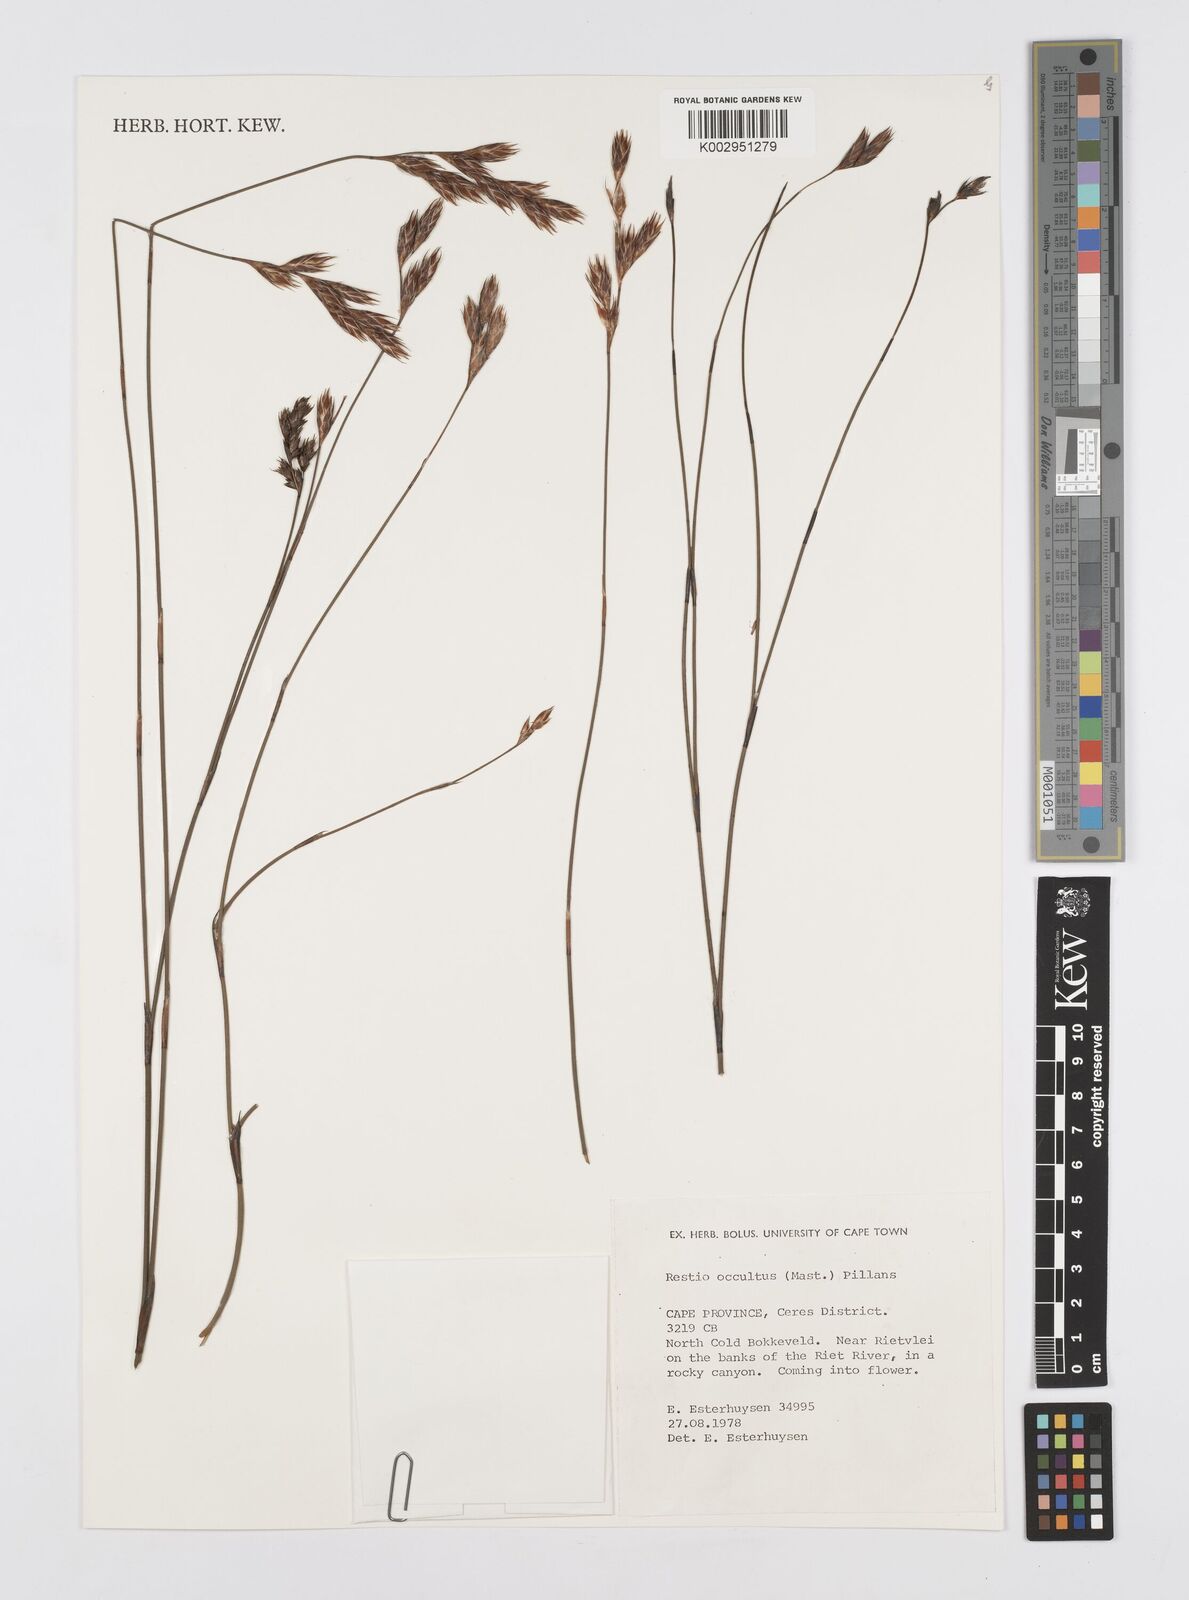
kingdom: Plantae
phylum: Tracheophyta
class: Liliopsida
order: Poales
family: Restionaceae
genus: Restio
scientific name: Restio occultus
